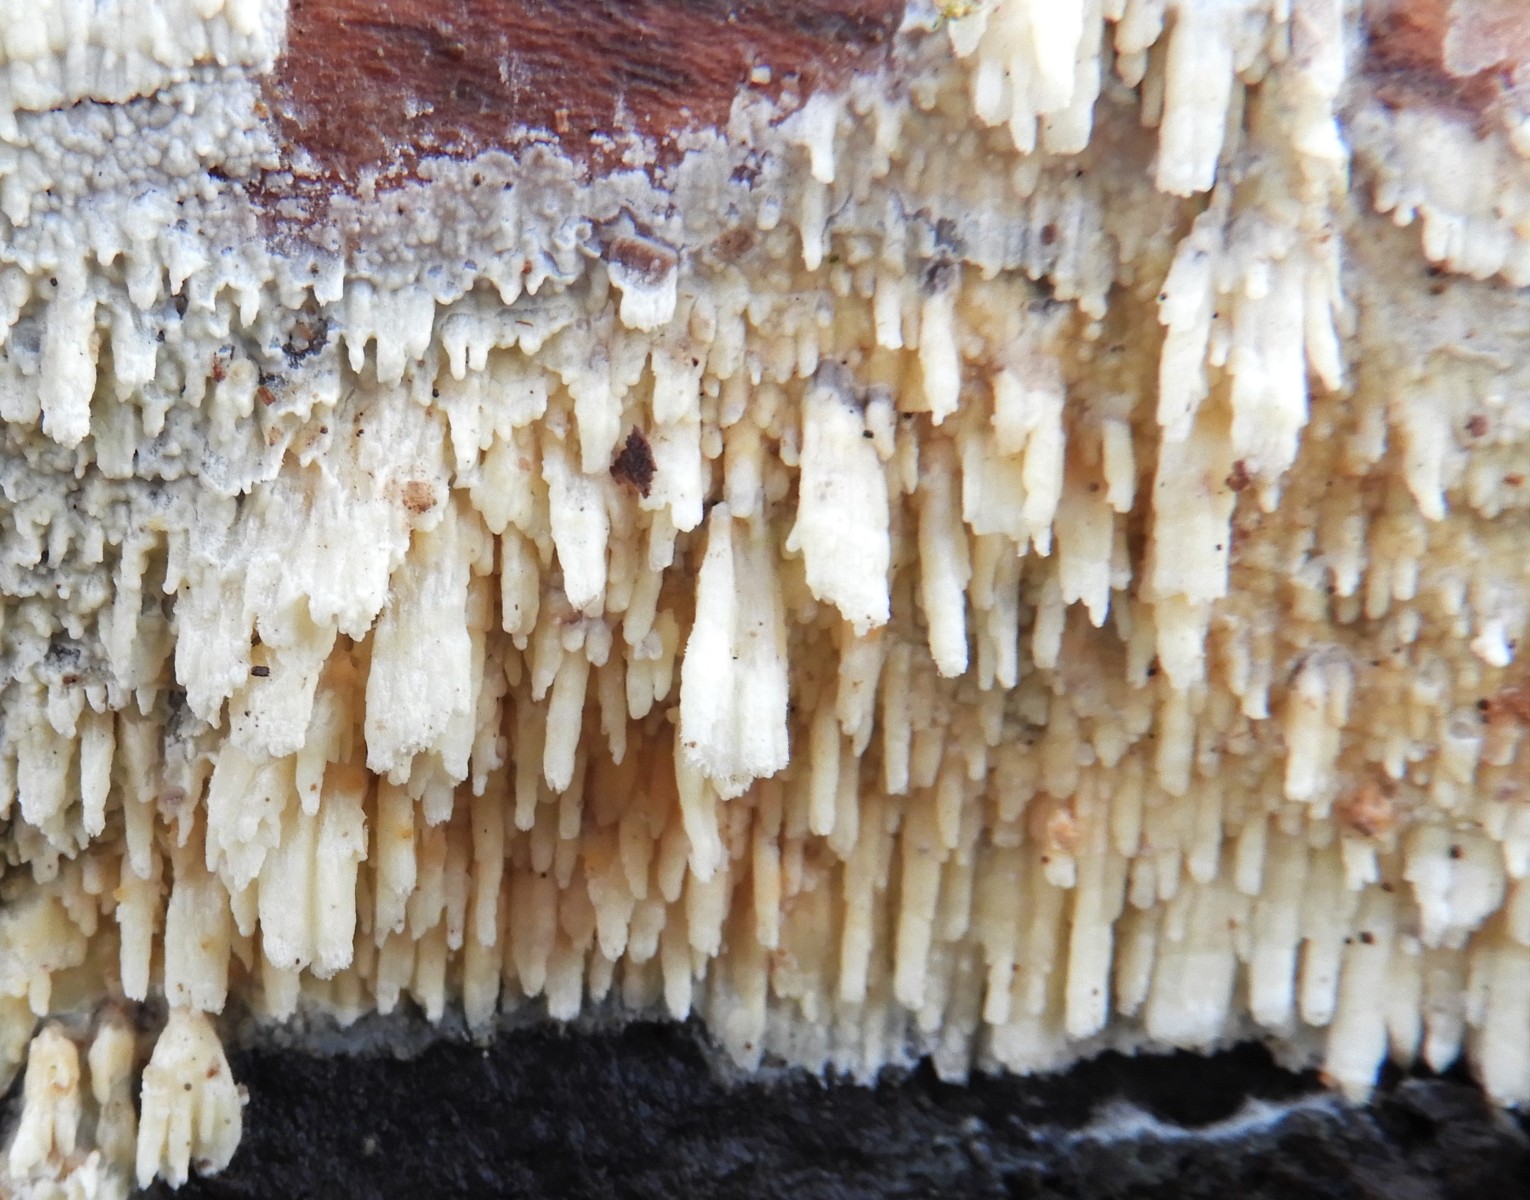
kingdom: Fungi
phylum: Basidiomycota
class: Agaricomycetes
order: Hymenochaetales
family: Schizoporaceae
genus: Xylodon
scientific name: Xylodon radula
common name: grovtandet kalkskind
